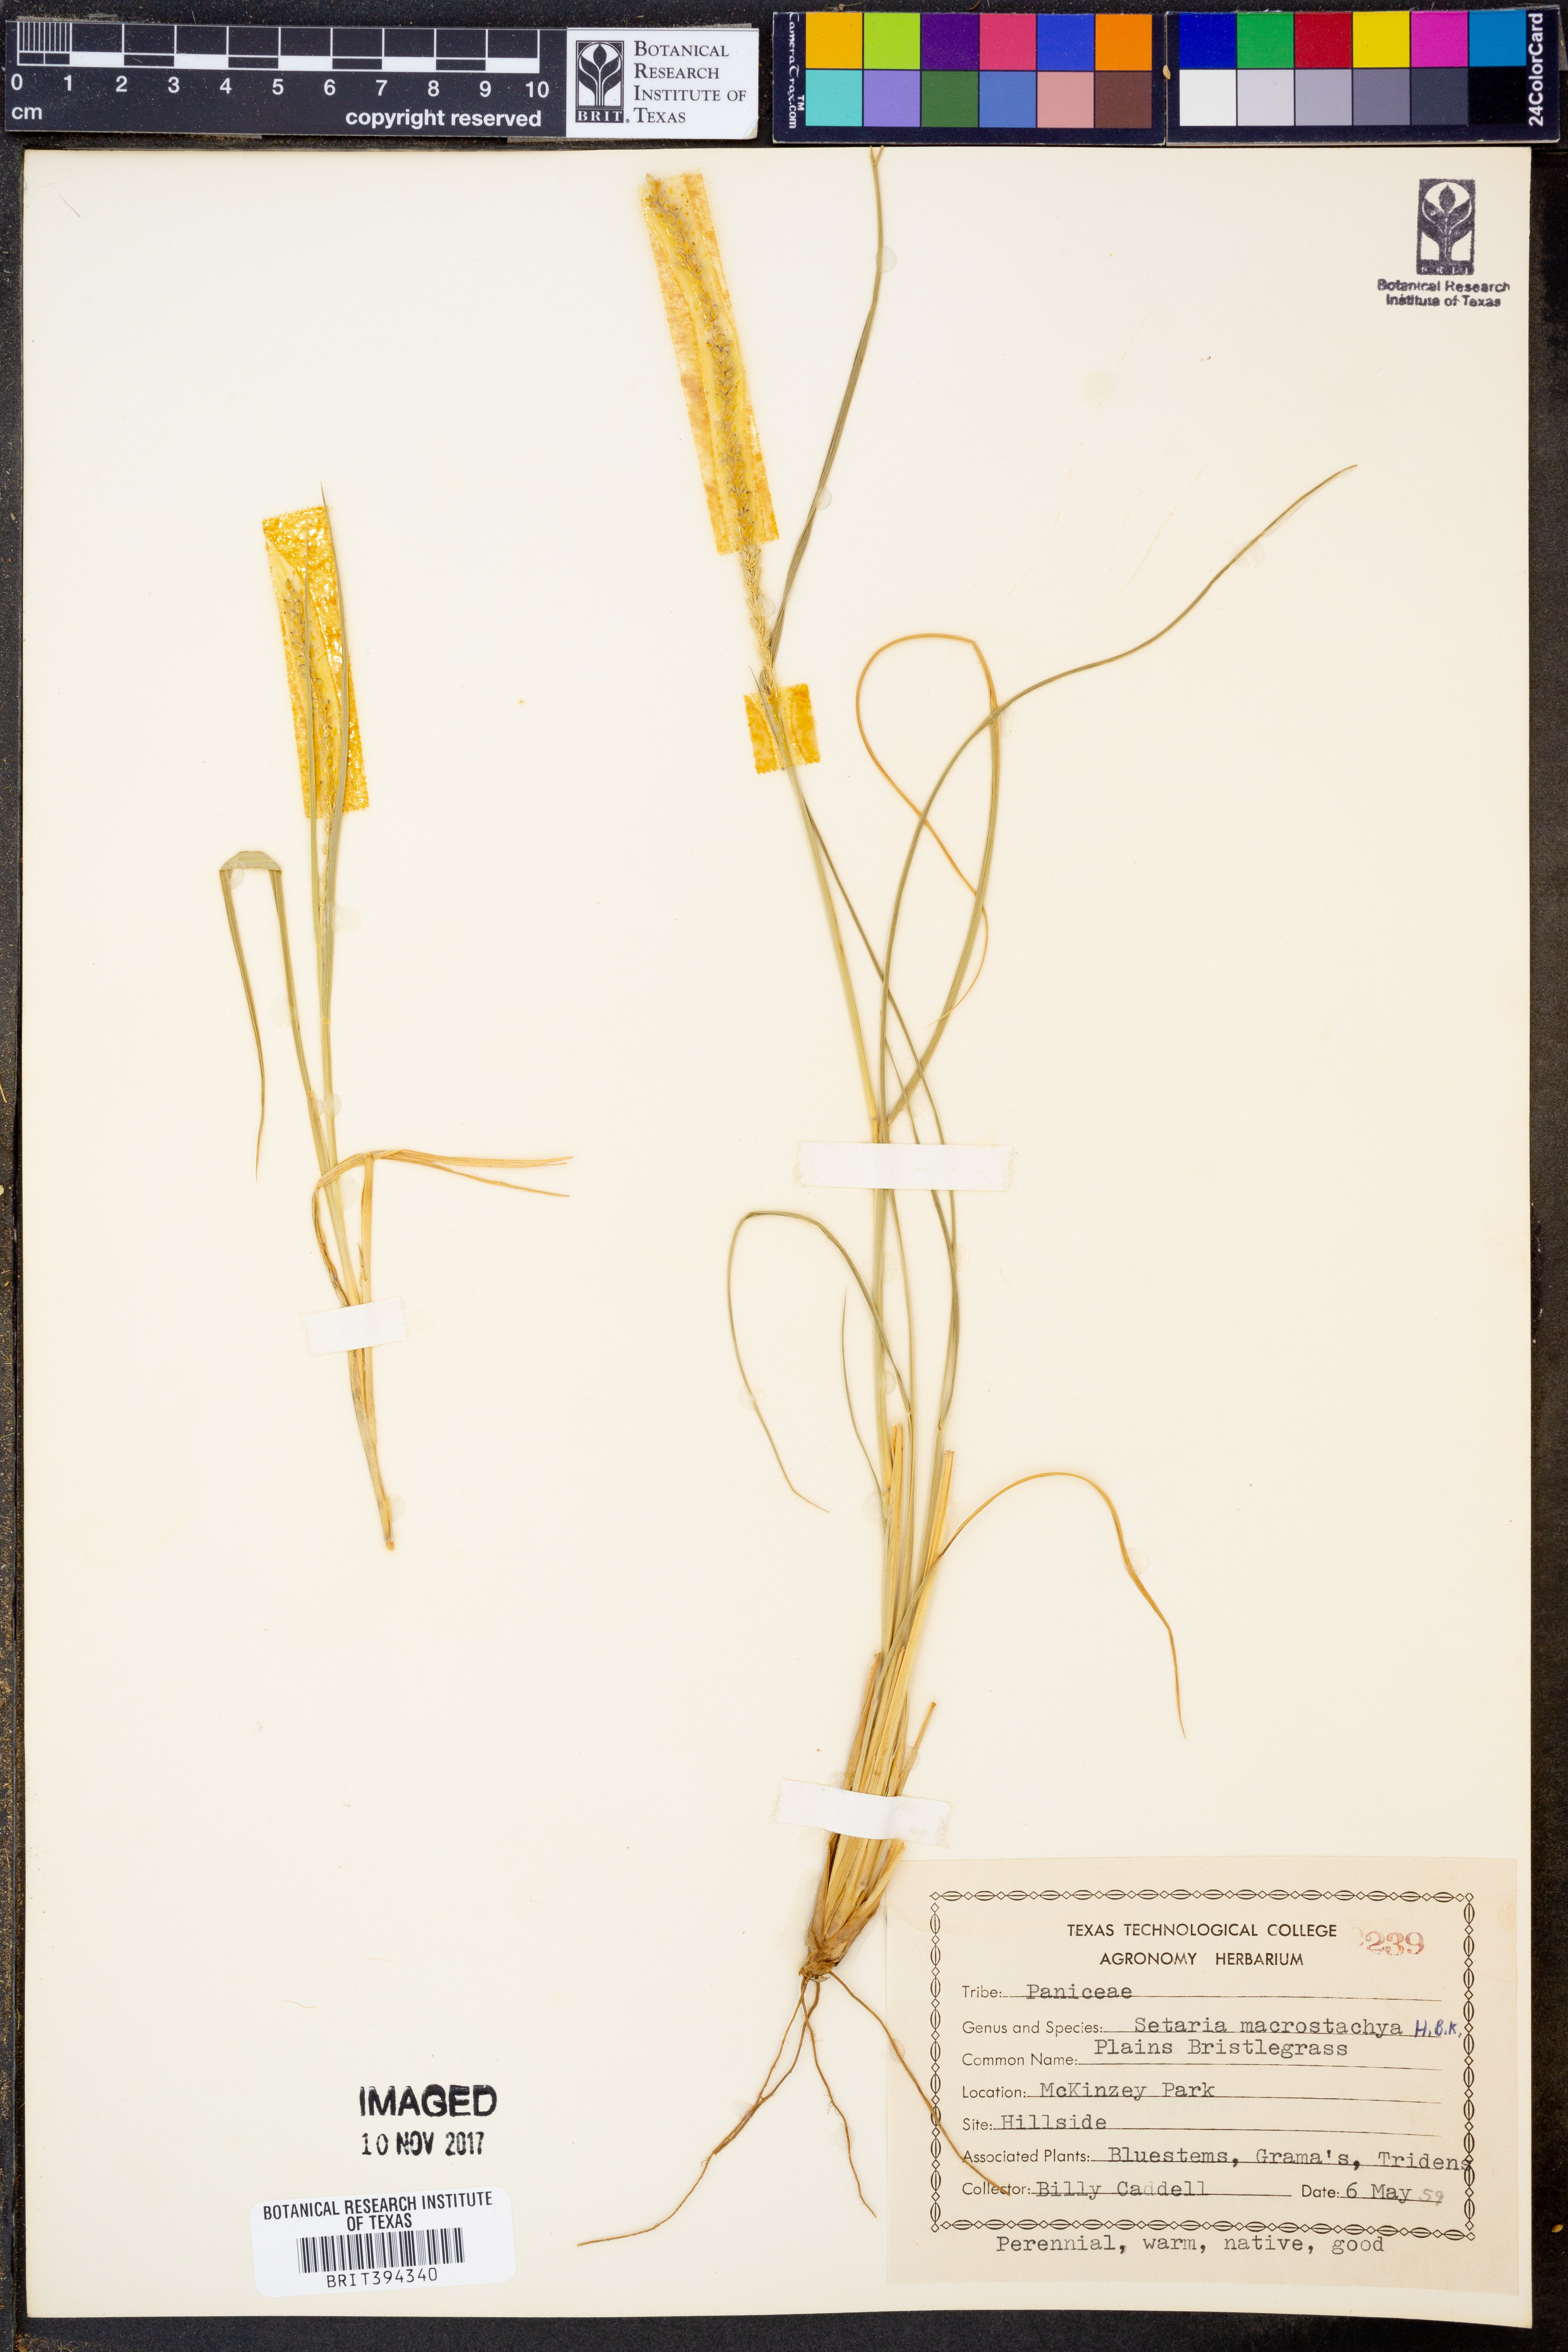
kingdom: Plantae
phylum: Tracheophyta
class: Liliopsida
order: Poales
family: Poaceae
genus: Setaria
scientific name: Setaria macrostachya
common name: Plains bristle grass
